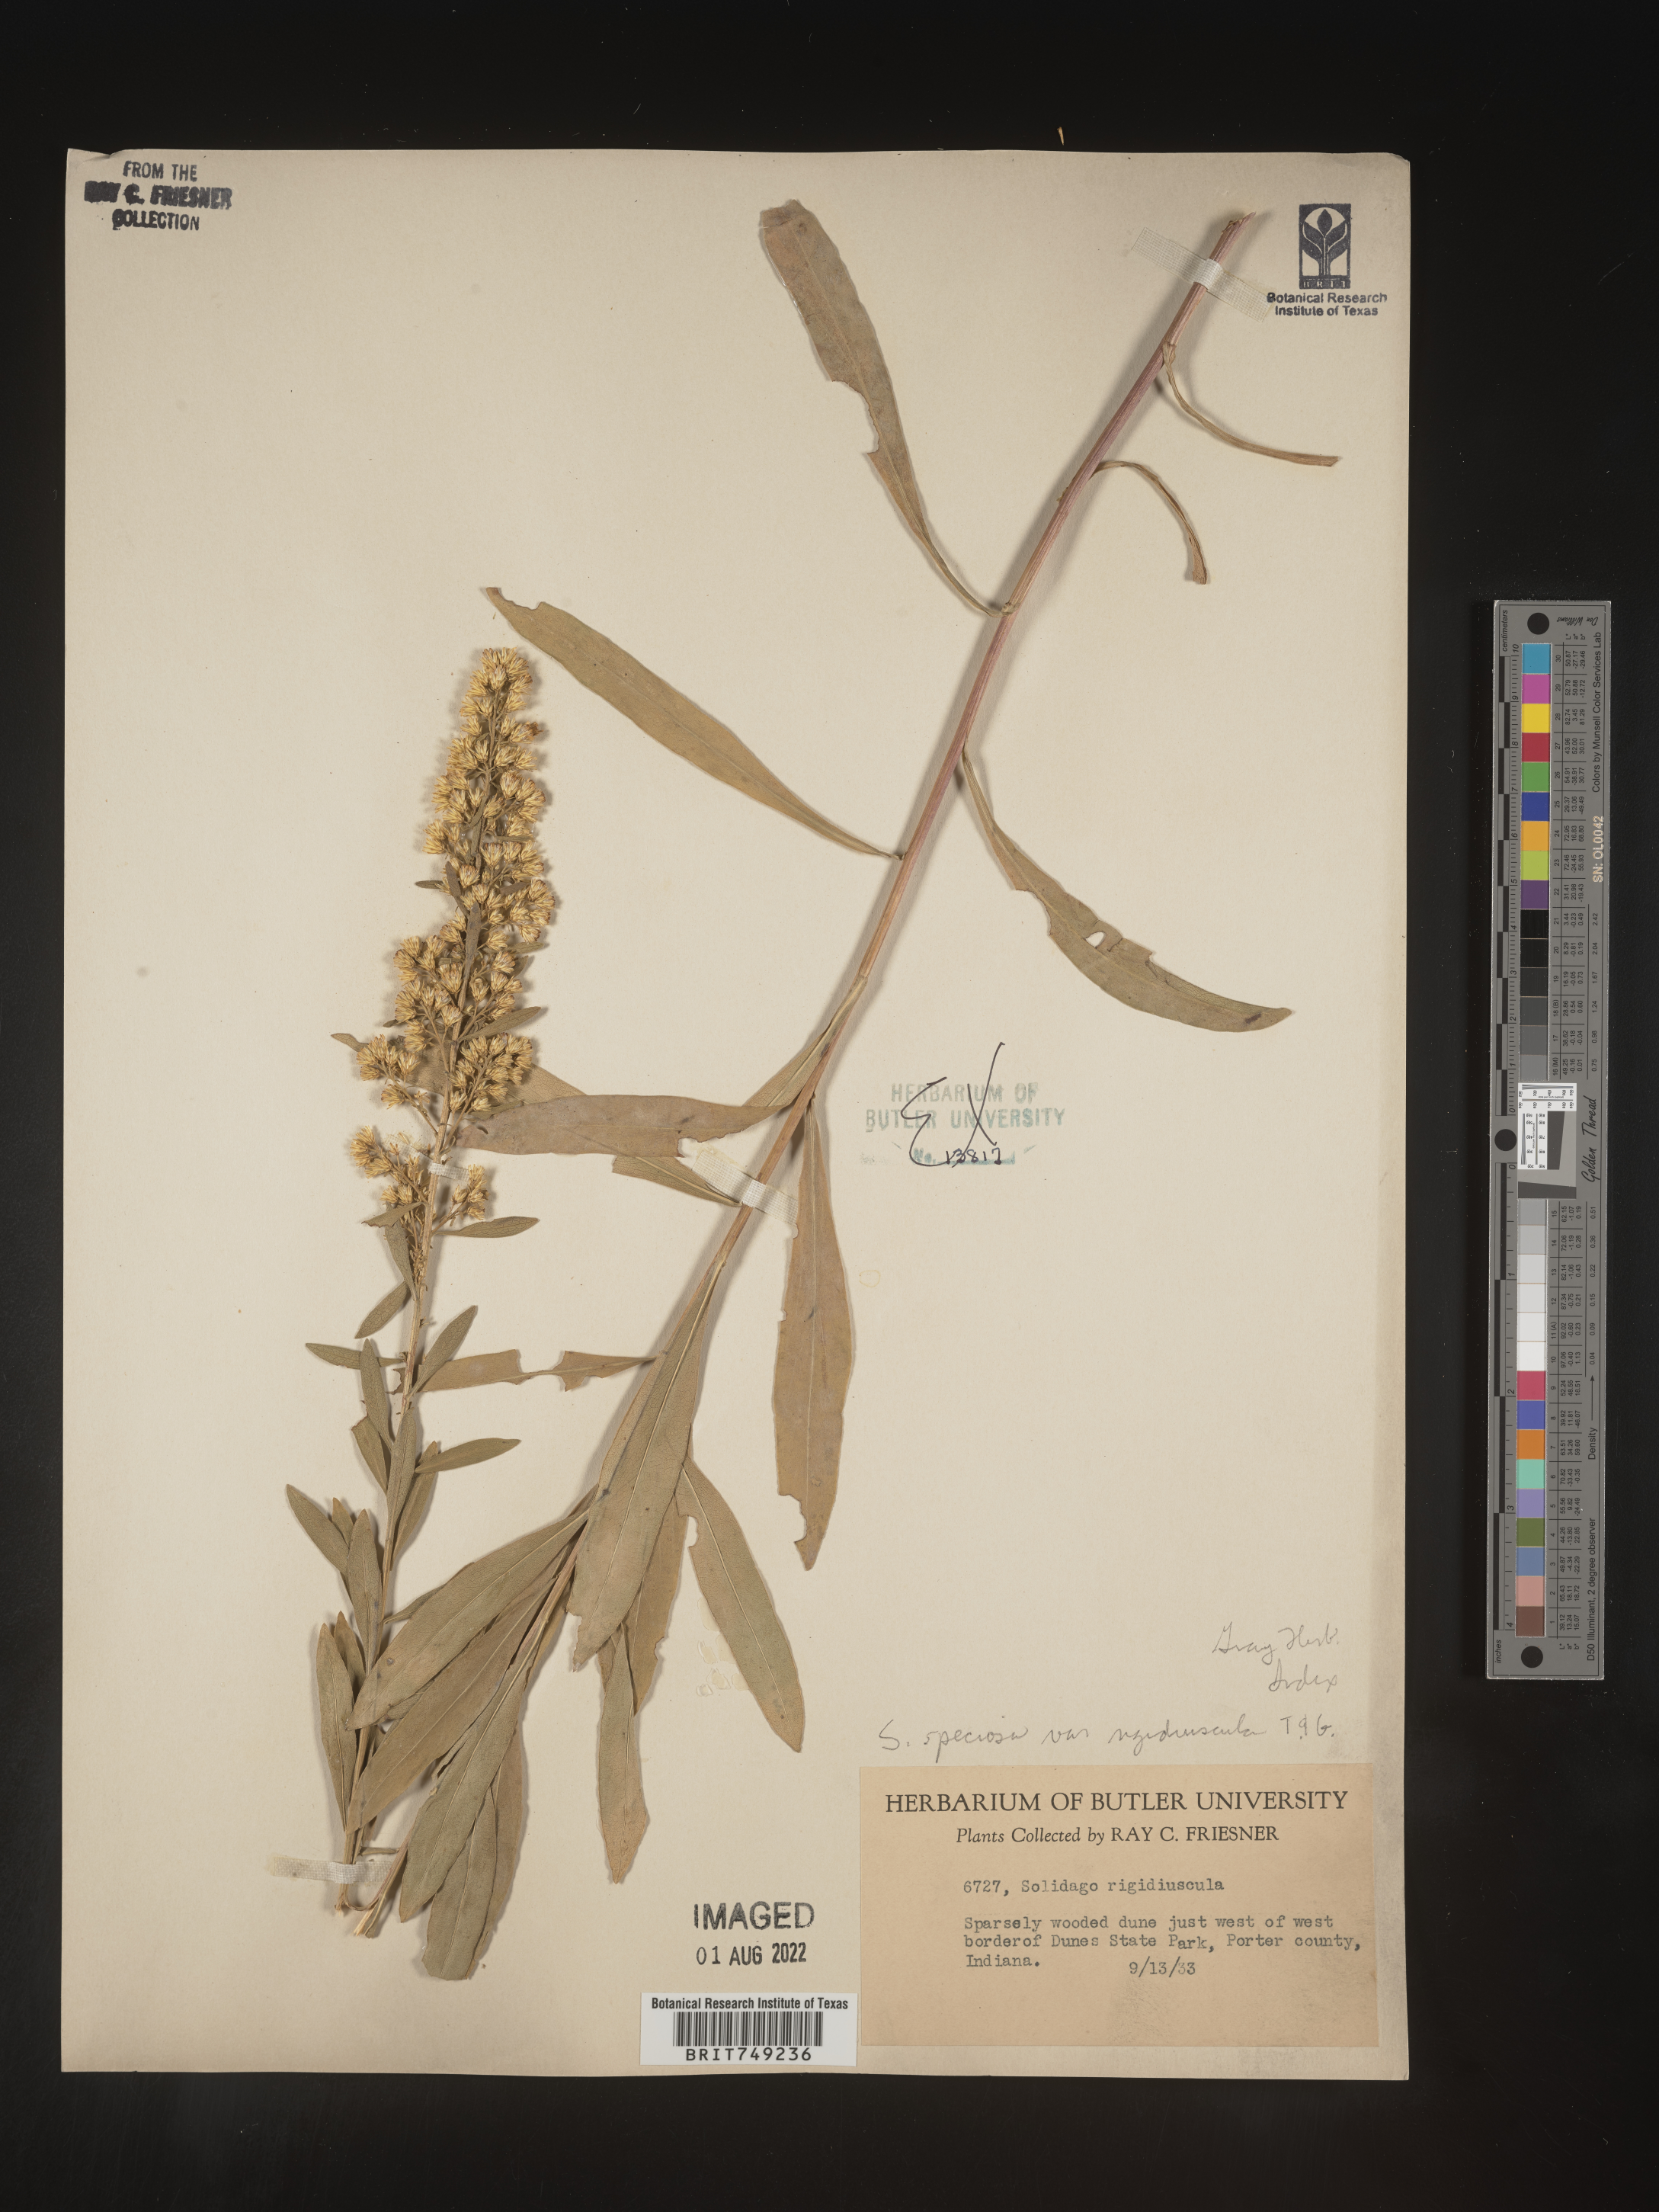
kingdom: Plantae
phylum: Tracheophyta
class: Magnoliopsida
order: Asterales
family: Asteraceae
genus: Solidago
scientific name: Solidago speciosa
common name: Showy goldenrod
